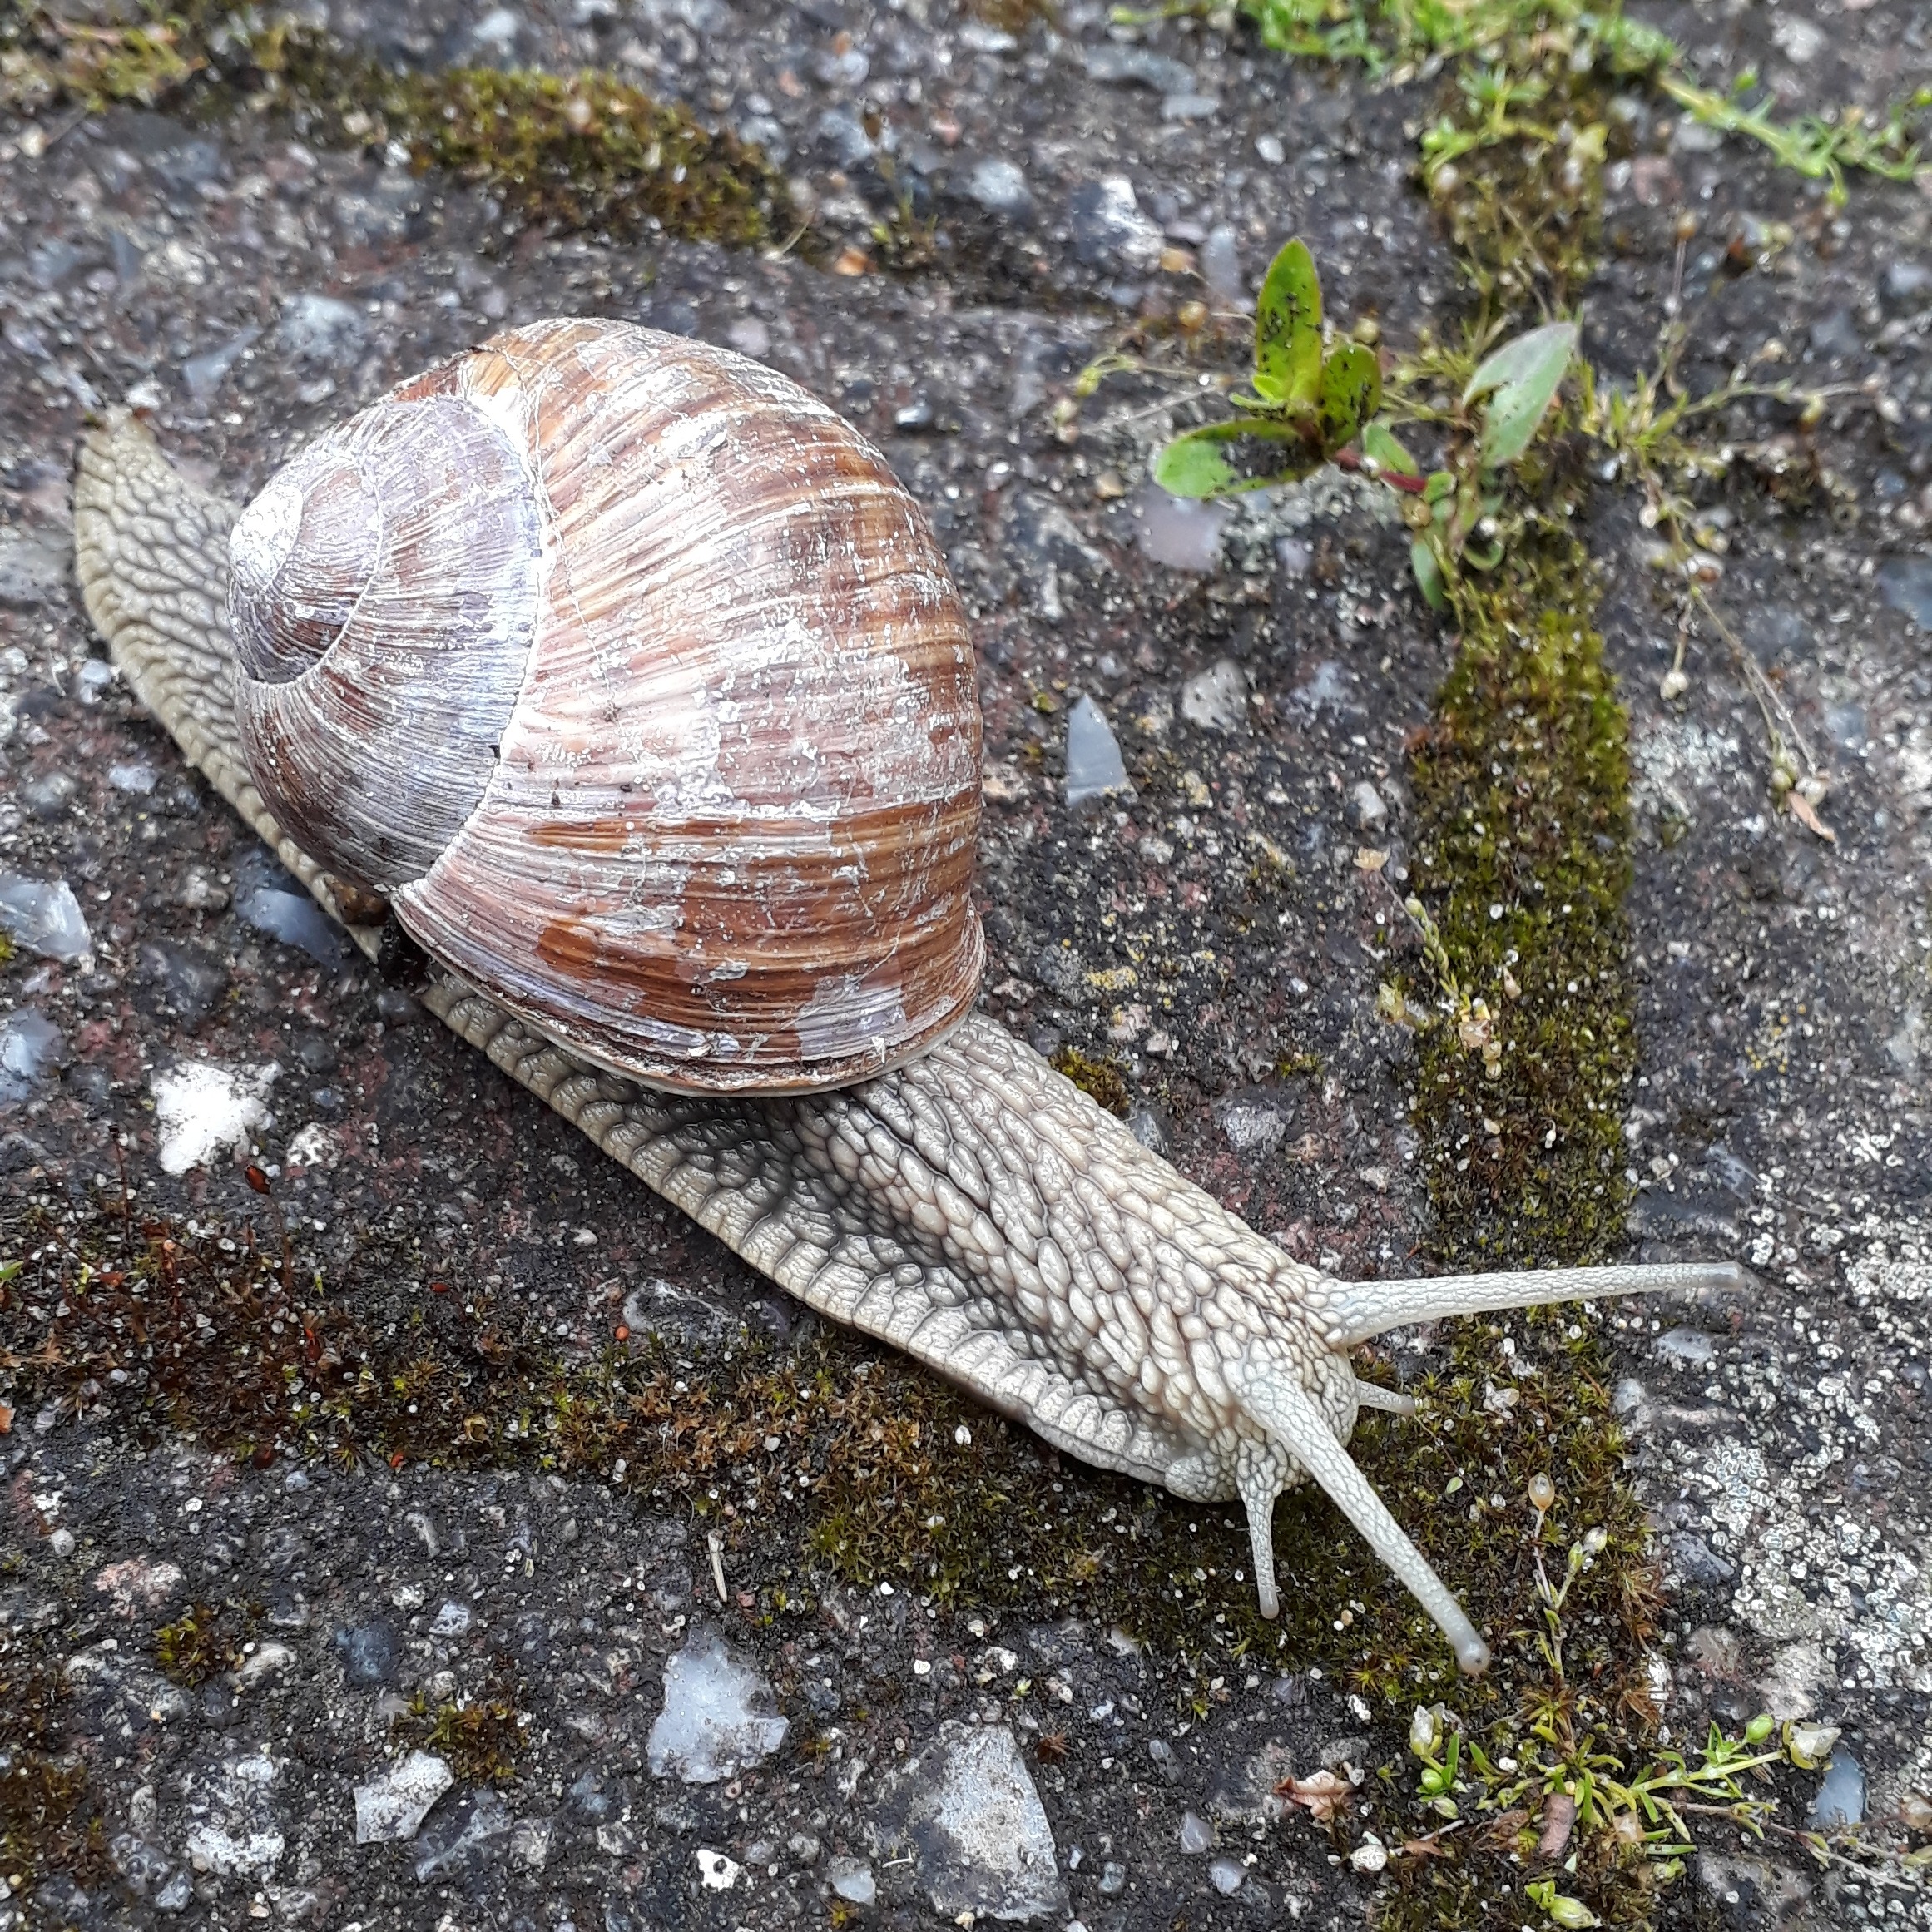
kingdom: Animalia
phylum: Mollusca
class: Gastropoda
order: Stylommatophora
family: Helicidae
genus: Helix
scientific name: Helix pomatia
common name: Vinbjergsnegl
